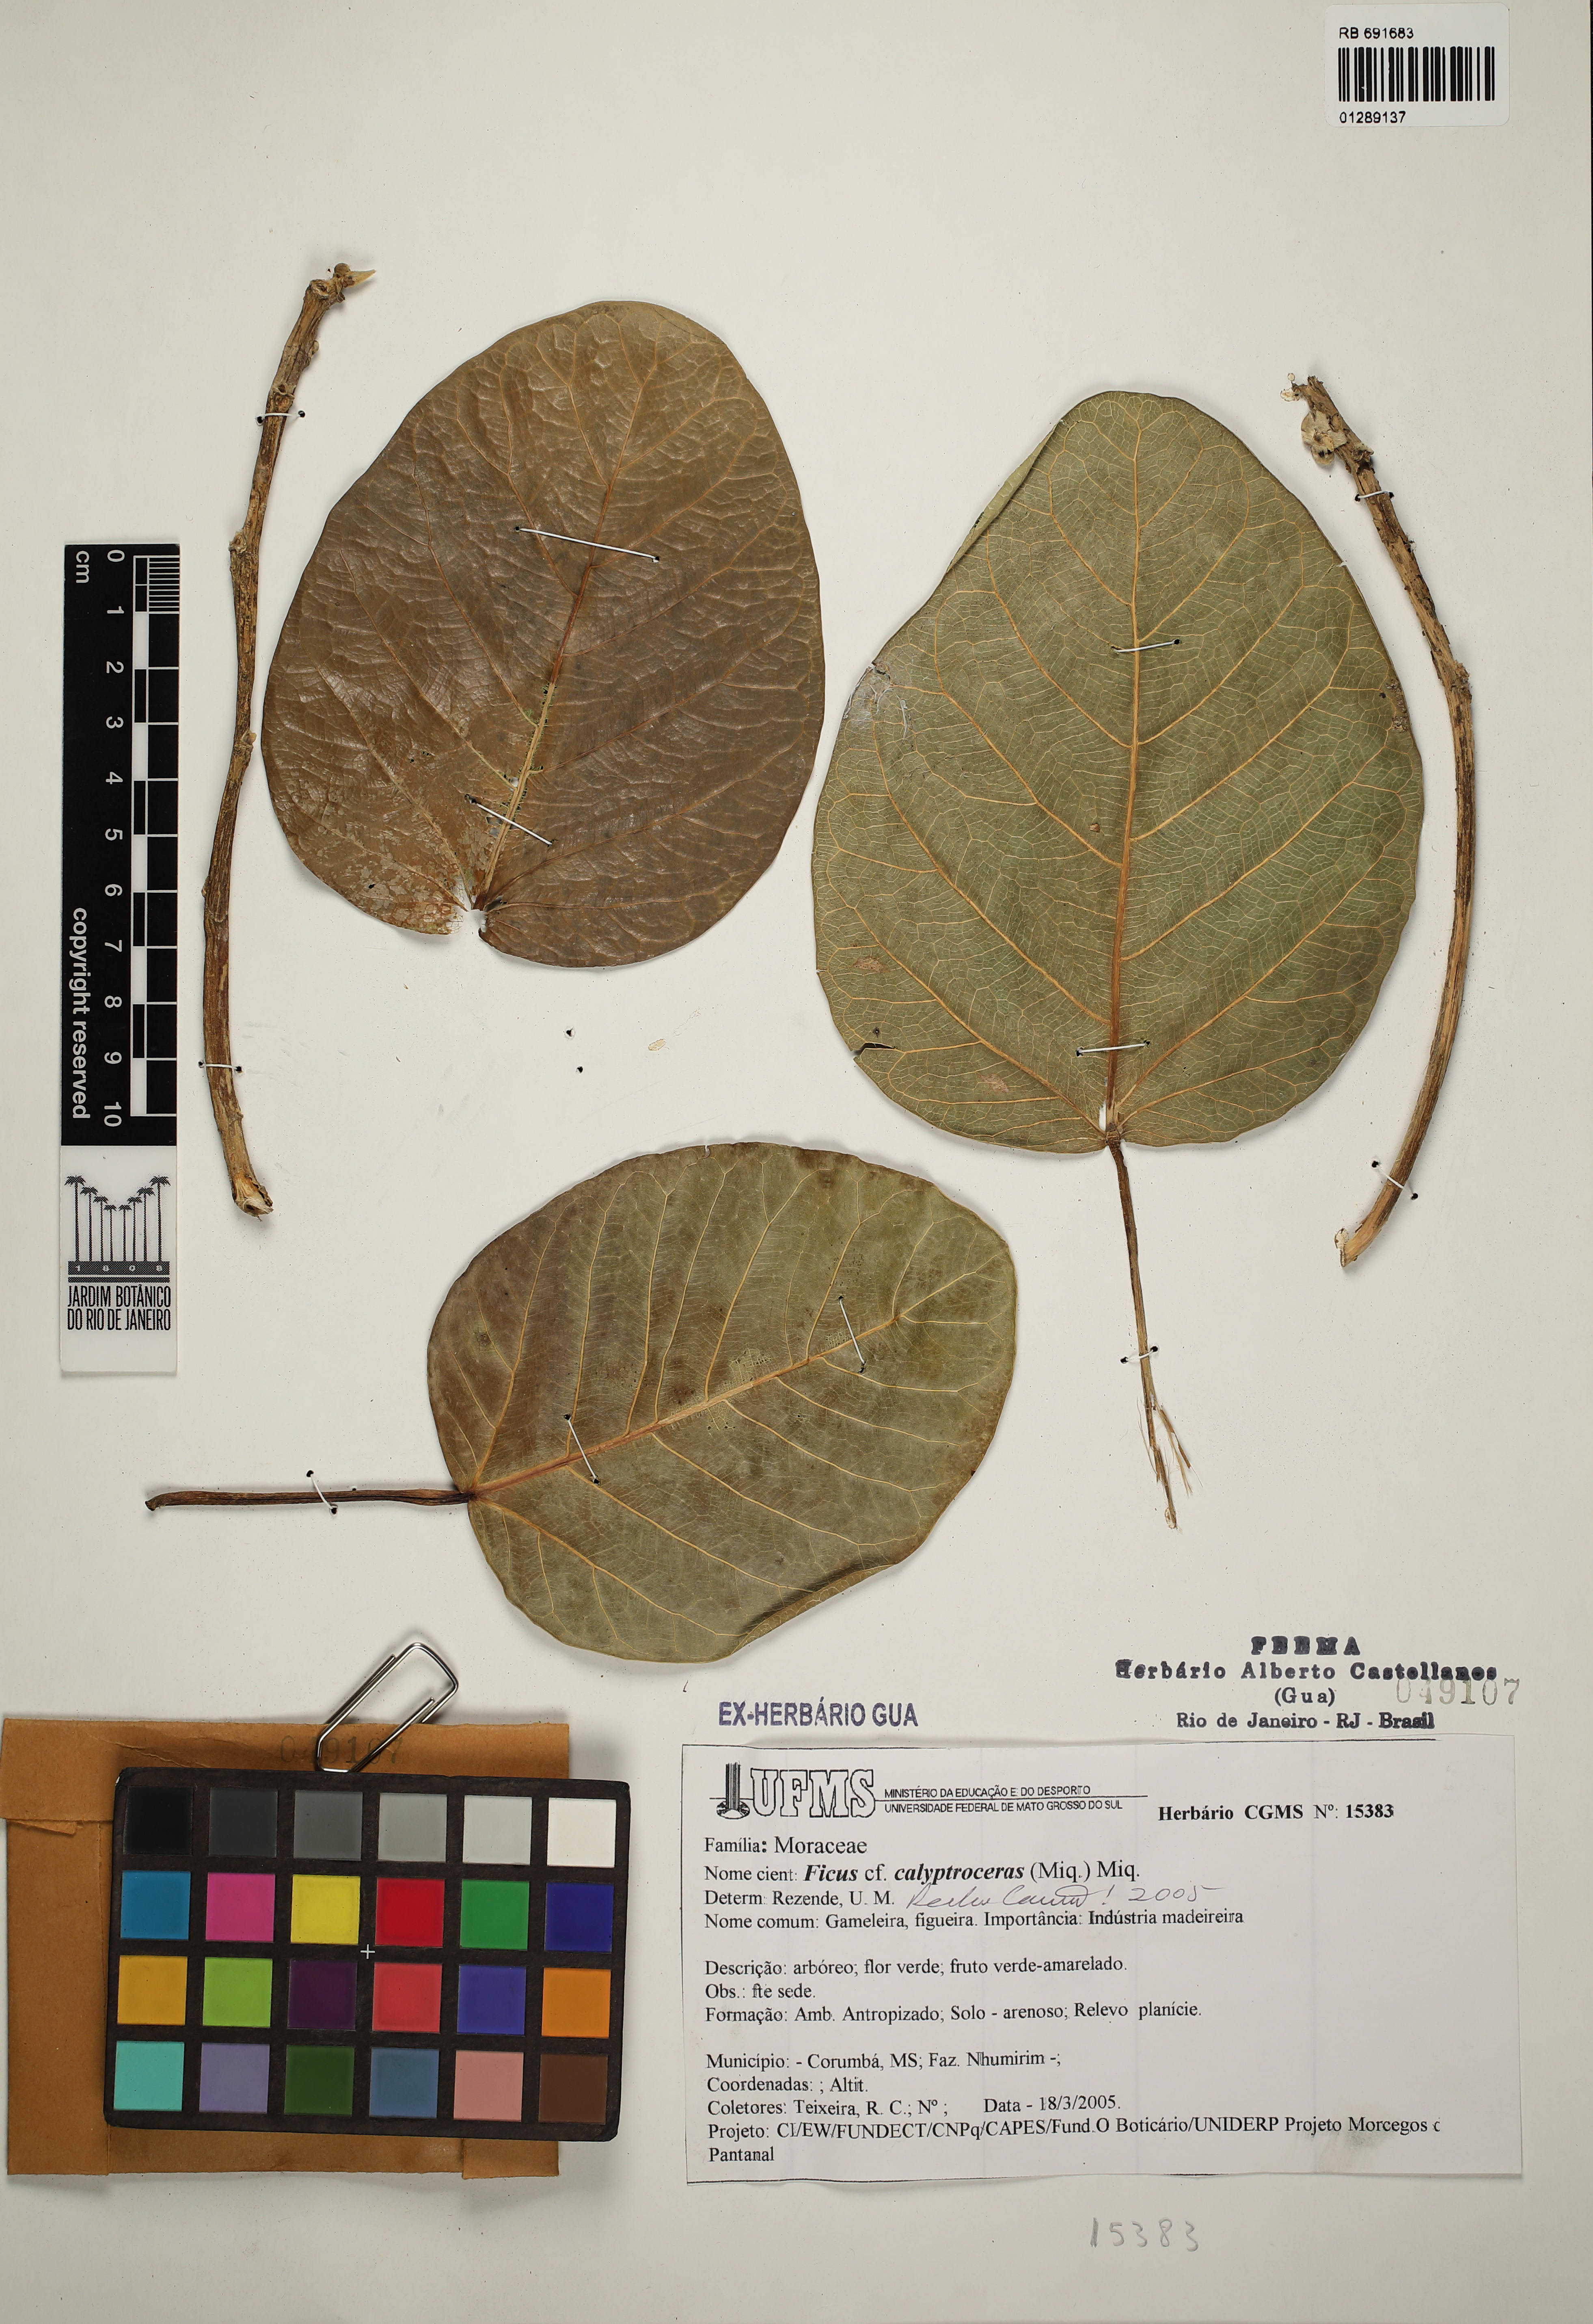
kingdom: Plantae
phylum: Tracheophyta
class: Magnoliopsida
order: Rosales
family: Moraceae
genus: Ficus
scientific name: Ficus calyptroceras
